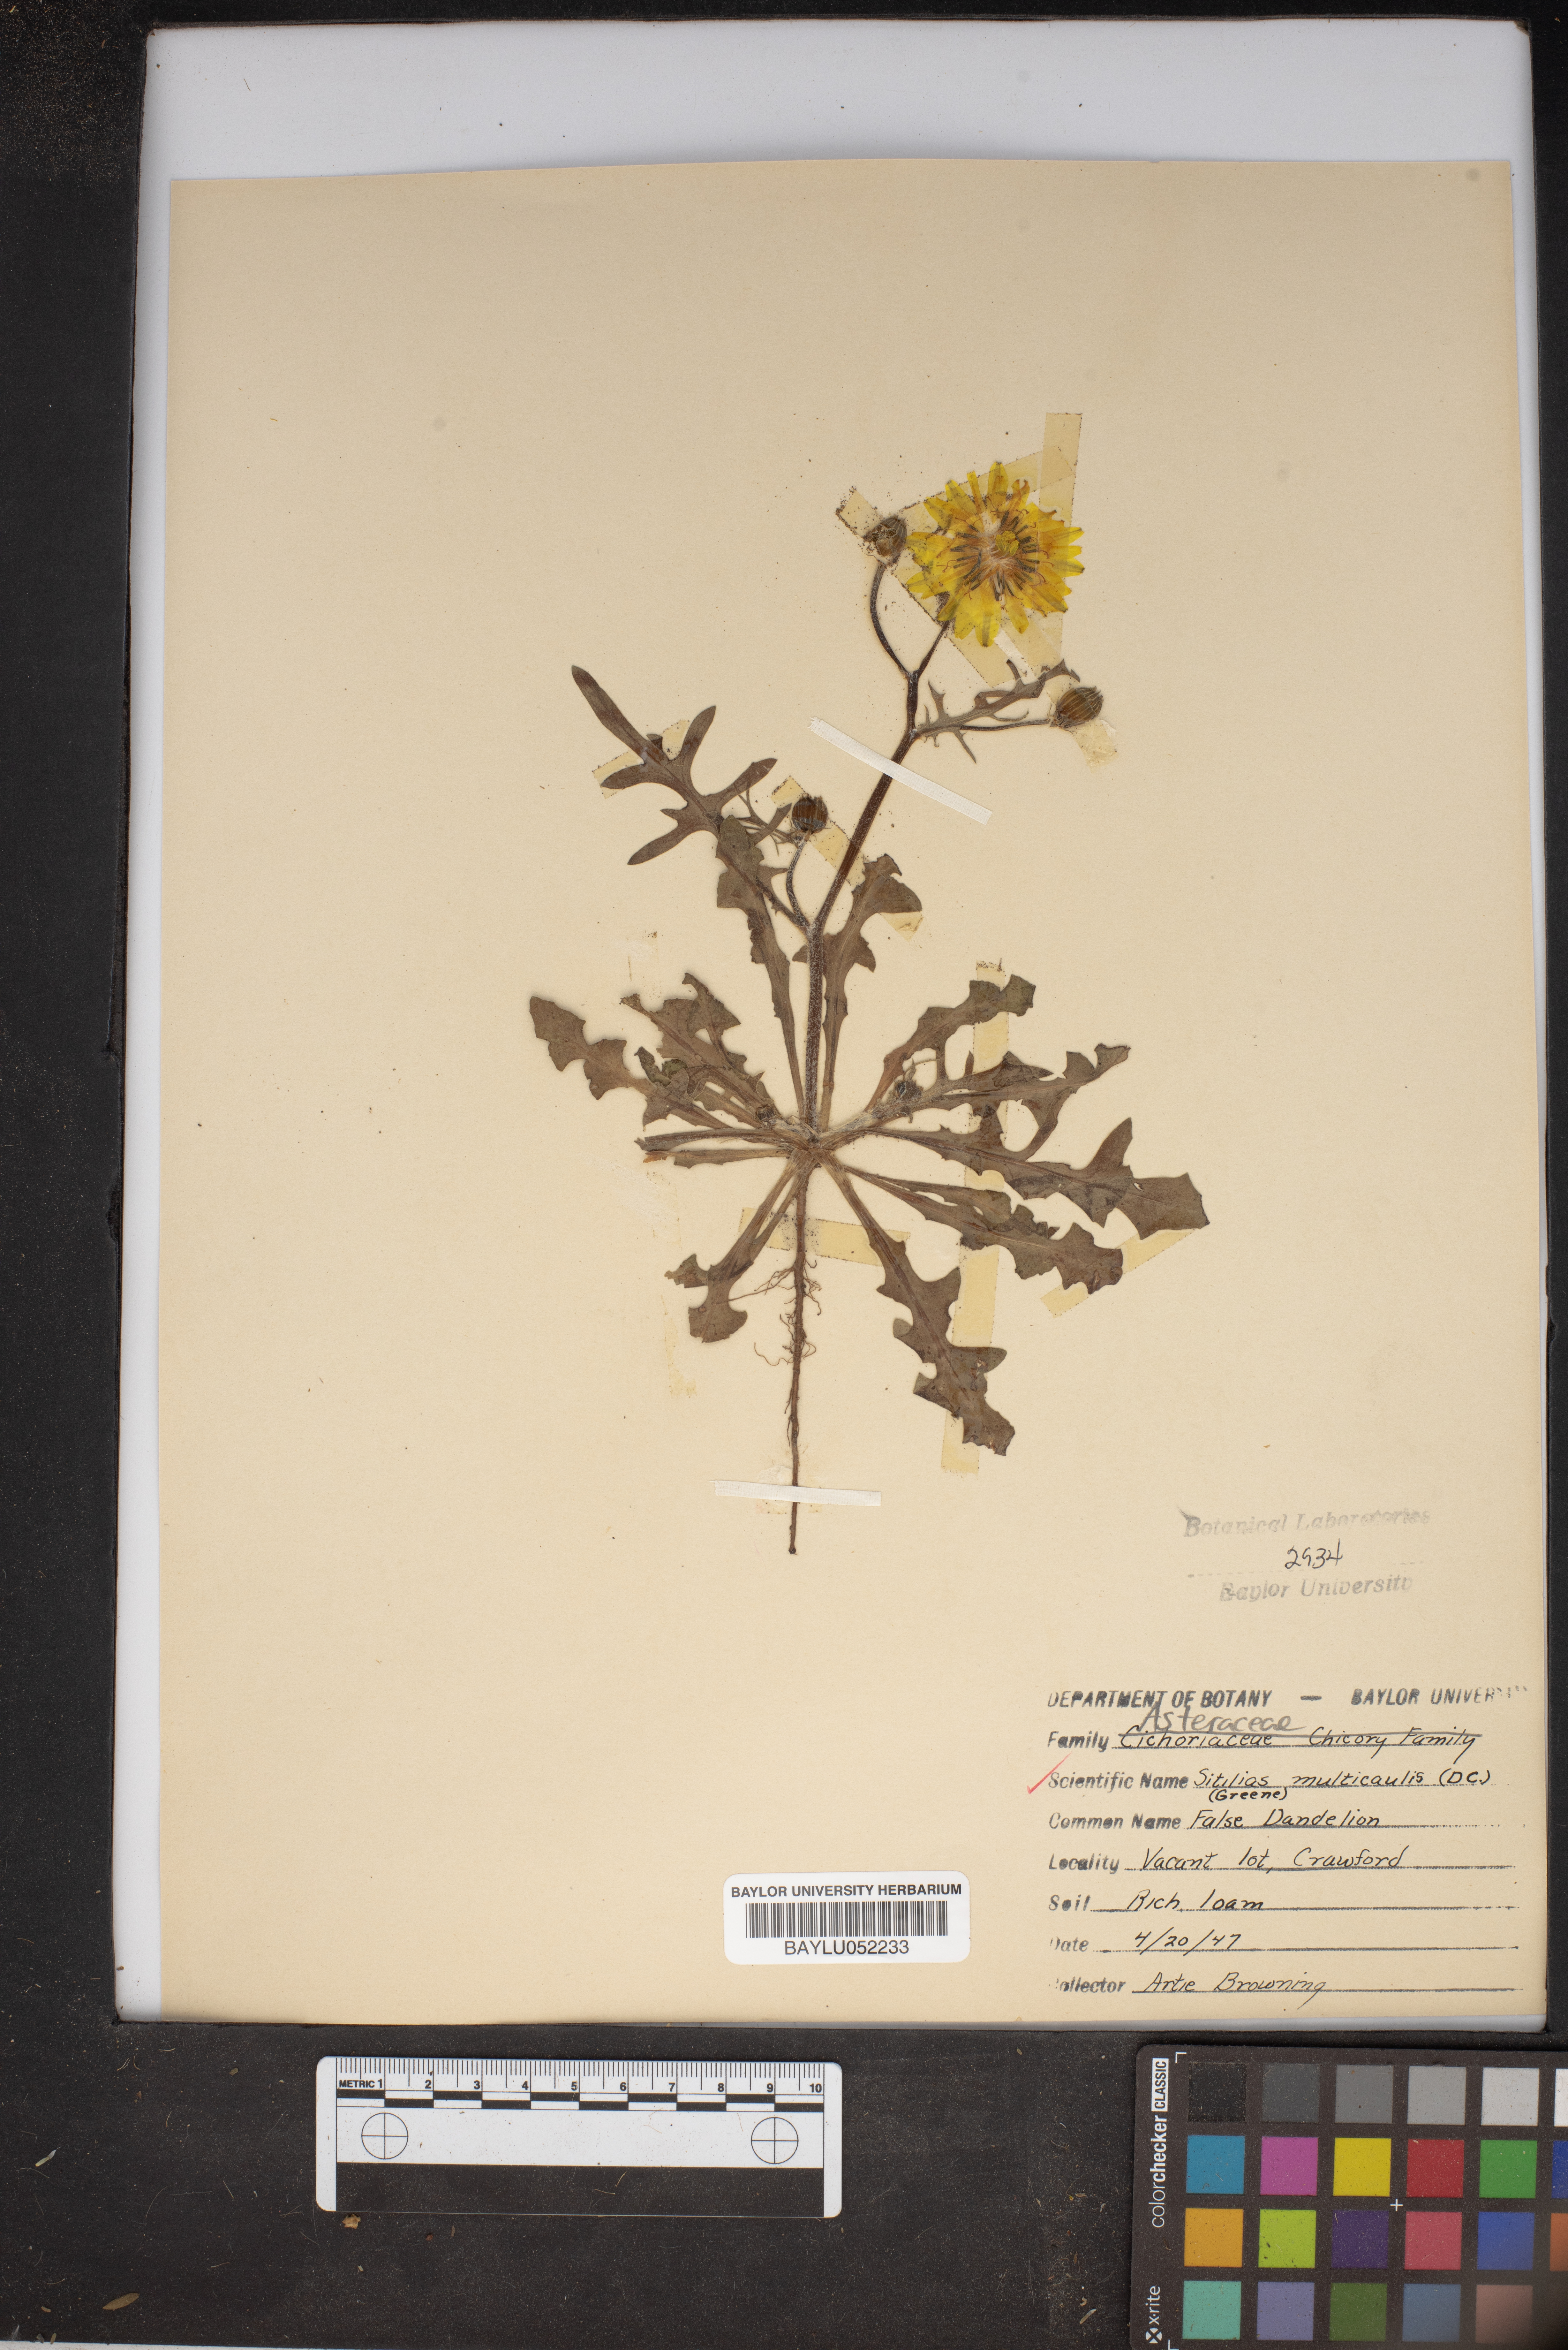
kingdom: Plantae
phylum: Tracheophyta
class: Magnoliopsida
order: Asterales
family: Asteraceae
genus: Pyrrhopappus
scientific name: Pyrrhopappus pauciflorus
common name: Texas false dandelion
